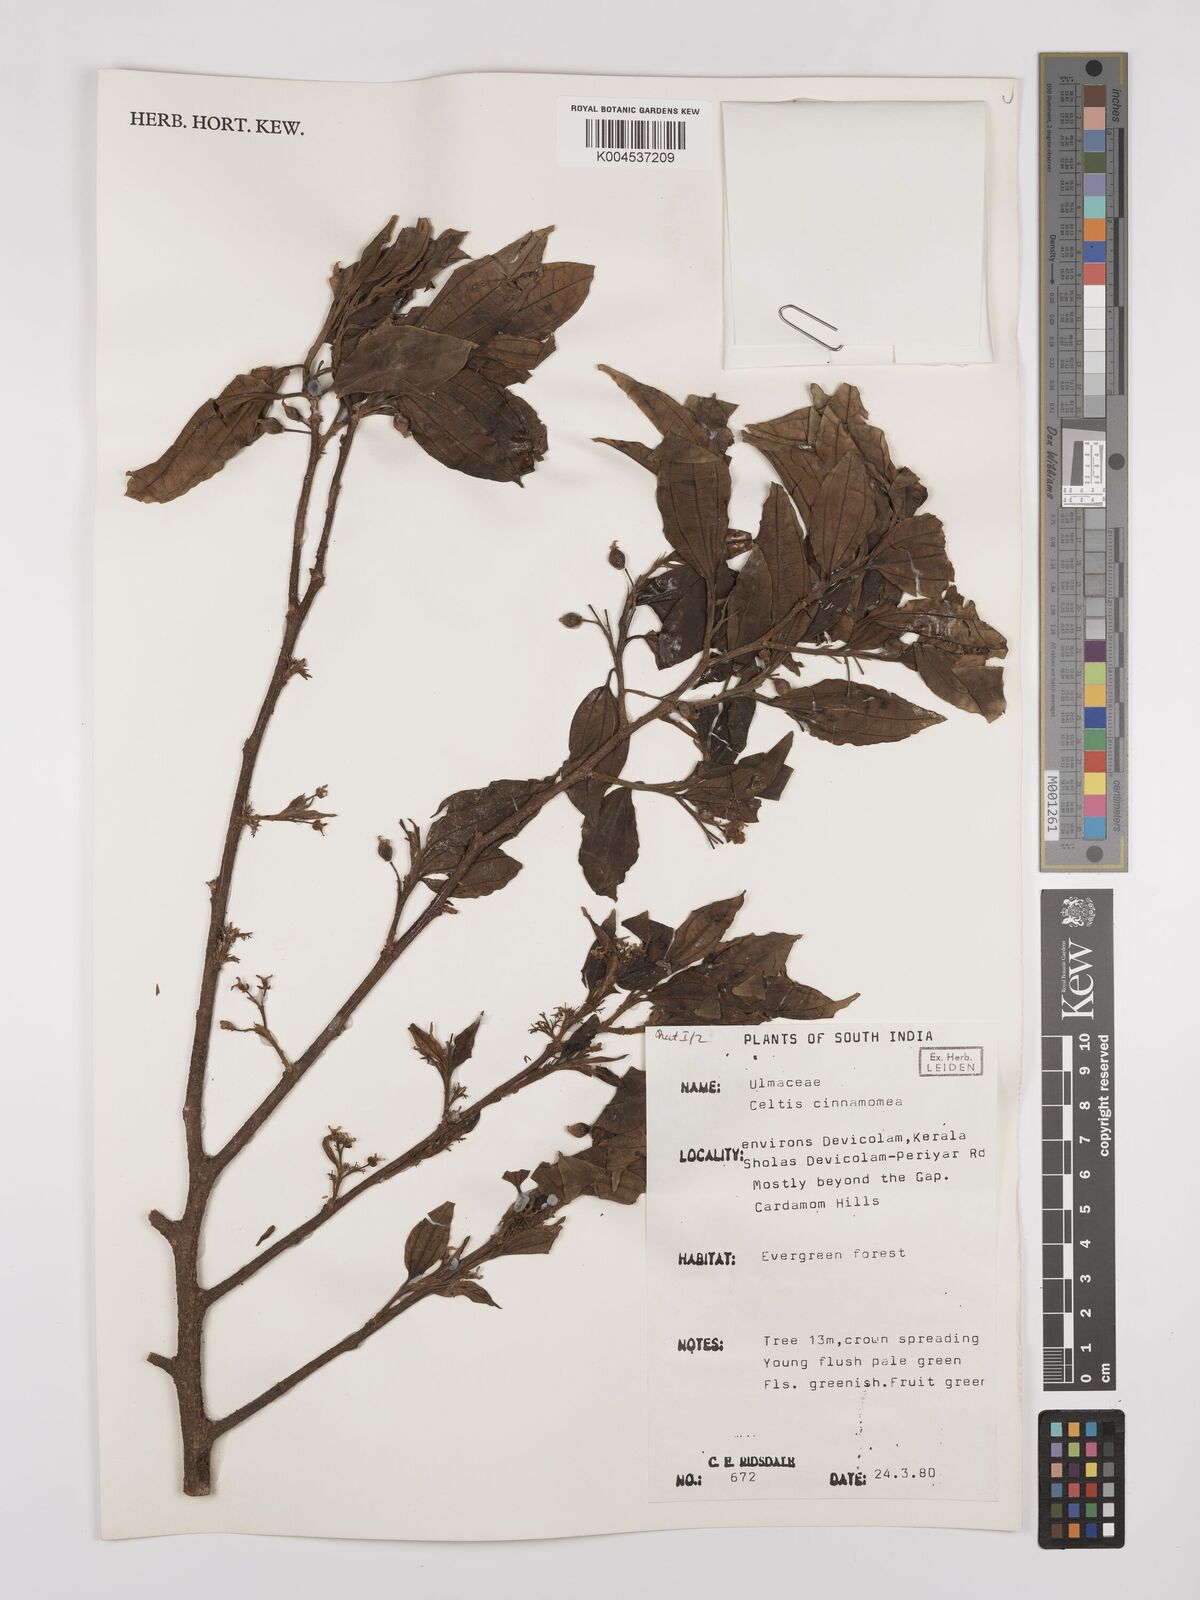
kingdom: Plantae
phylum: Tracheophyta
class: Magnoliopsida
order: Rosales
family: Cannabaceae
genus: Celtis
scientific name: Celtis timorensis
